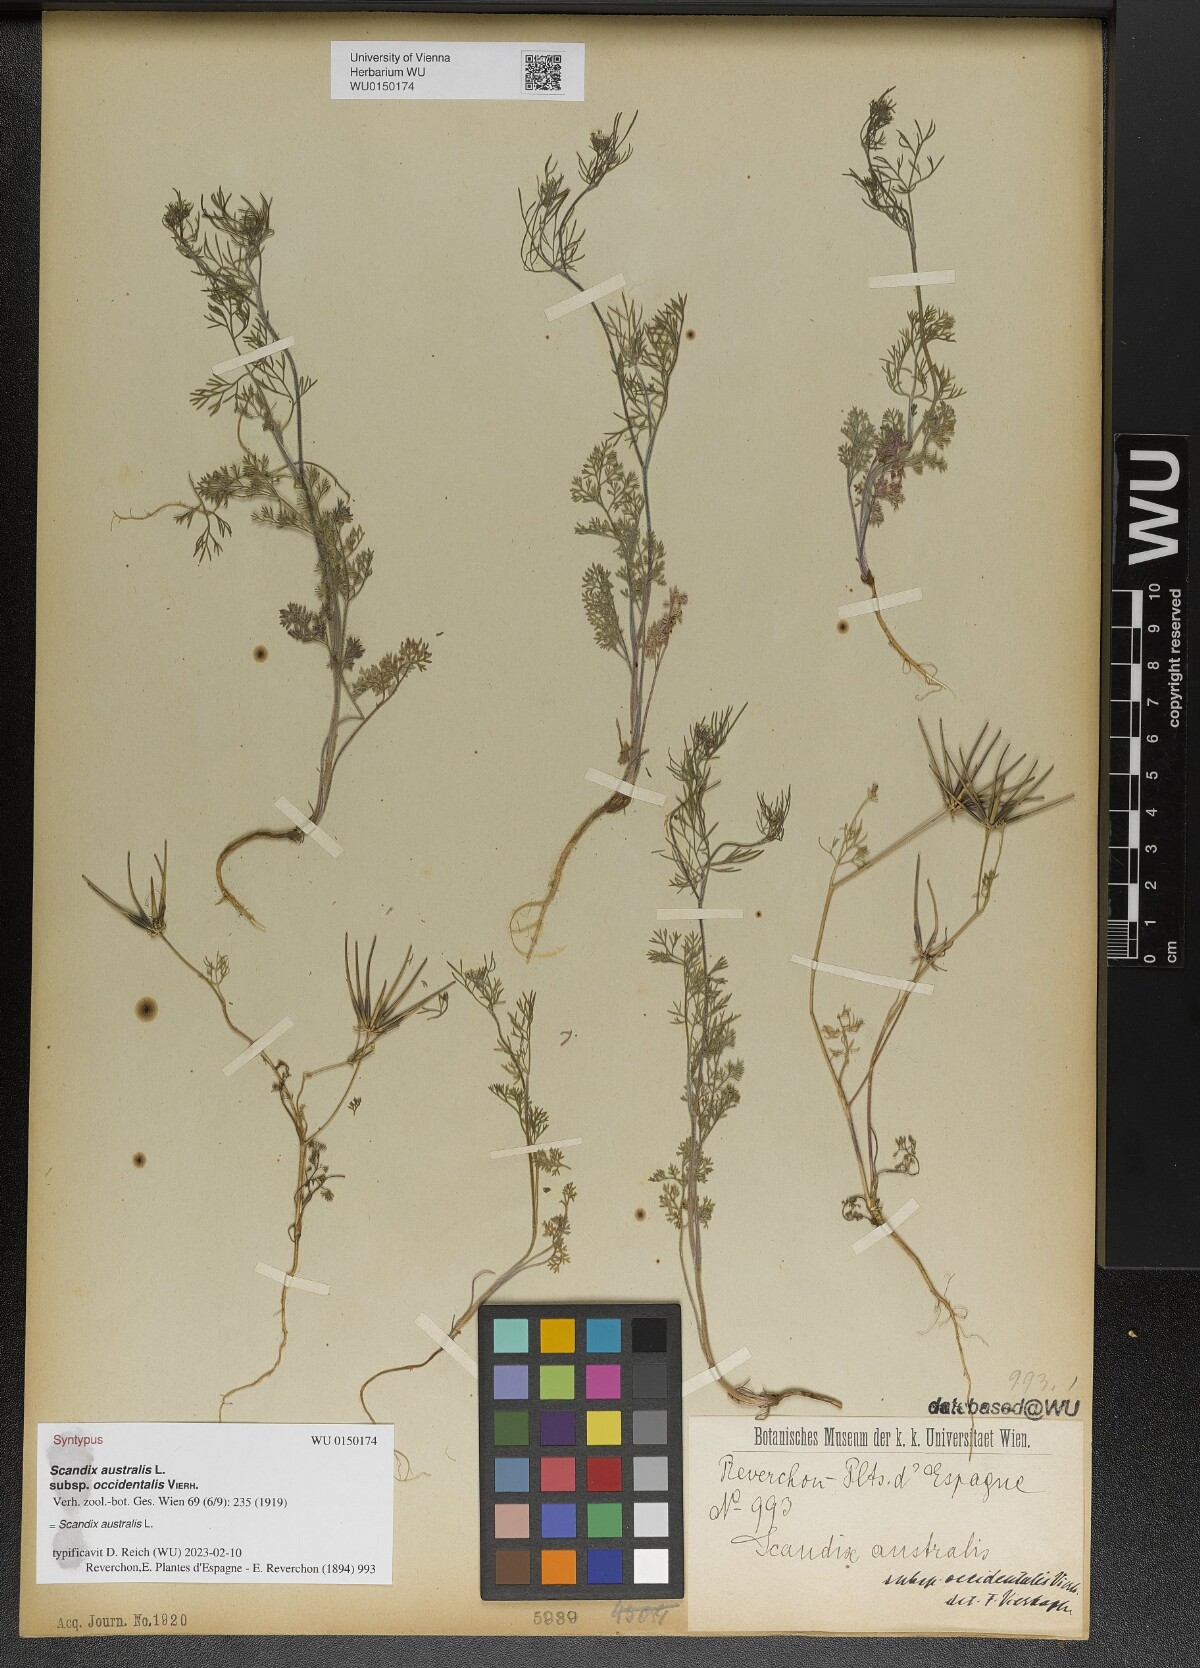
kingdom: Plantae
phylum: Tracheophyta
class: Magnoliopsida
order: Apiales
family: Apiaceae
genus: Scandix
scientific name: Scandix australis
